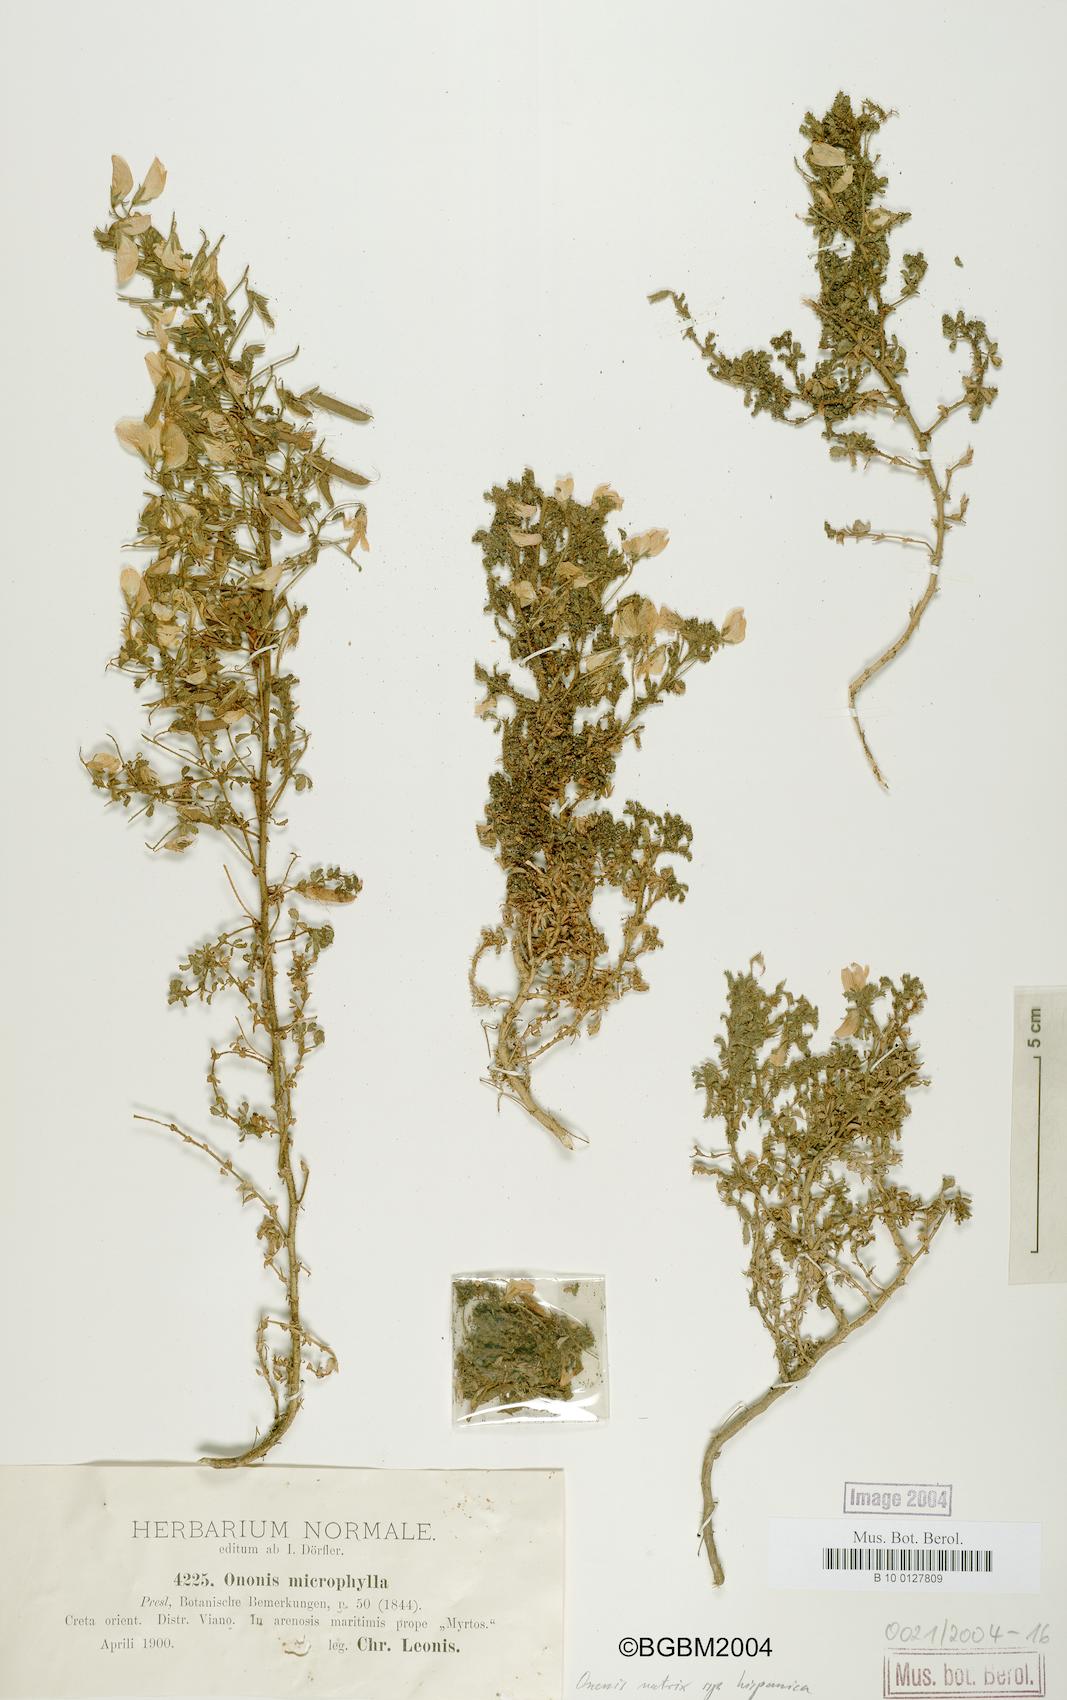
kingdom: Plantae
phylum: Tracheophyta
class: Magnoliopsida
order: Fabales
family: Fabaceae
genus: Ononis
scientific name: Ononis natrix
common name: Yellow restharrow
